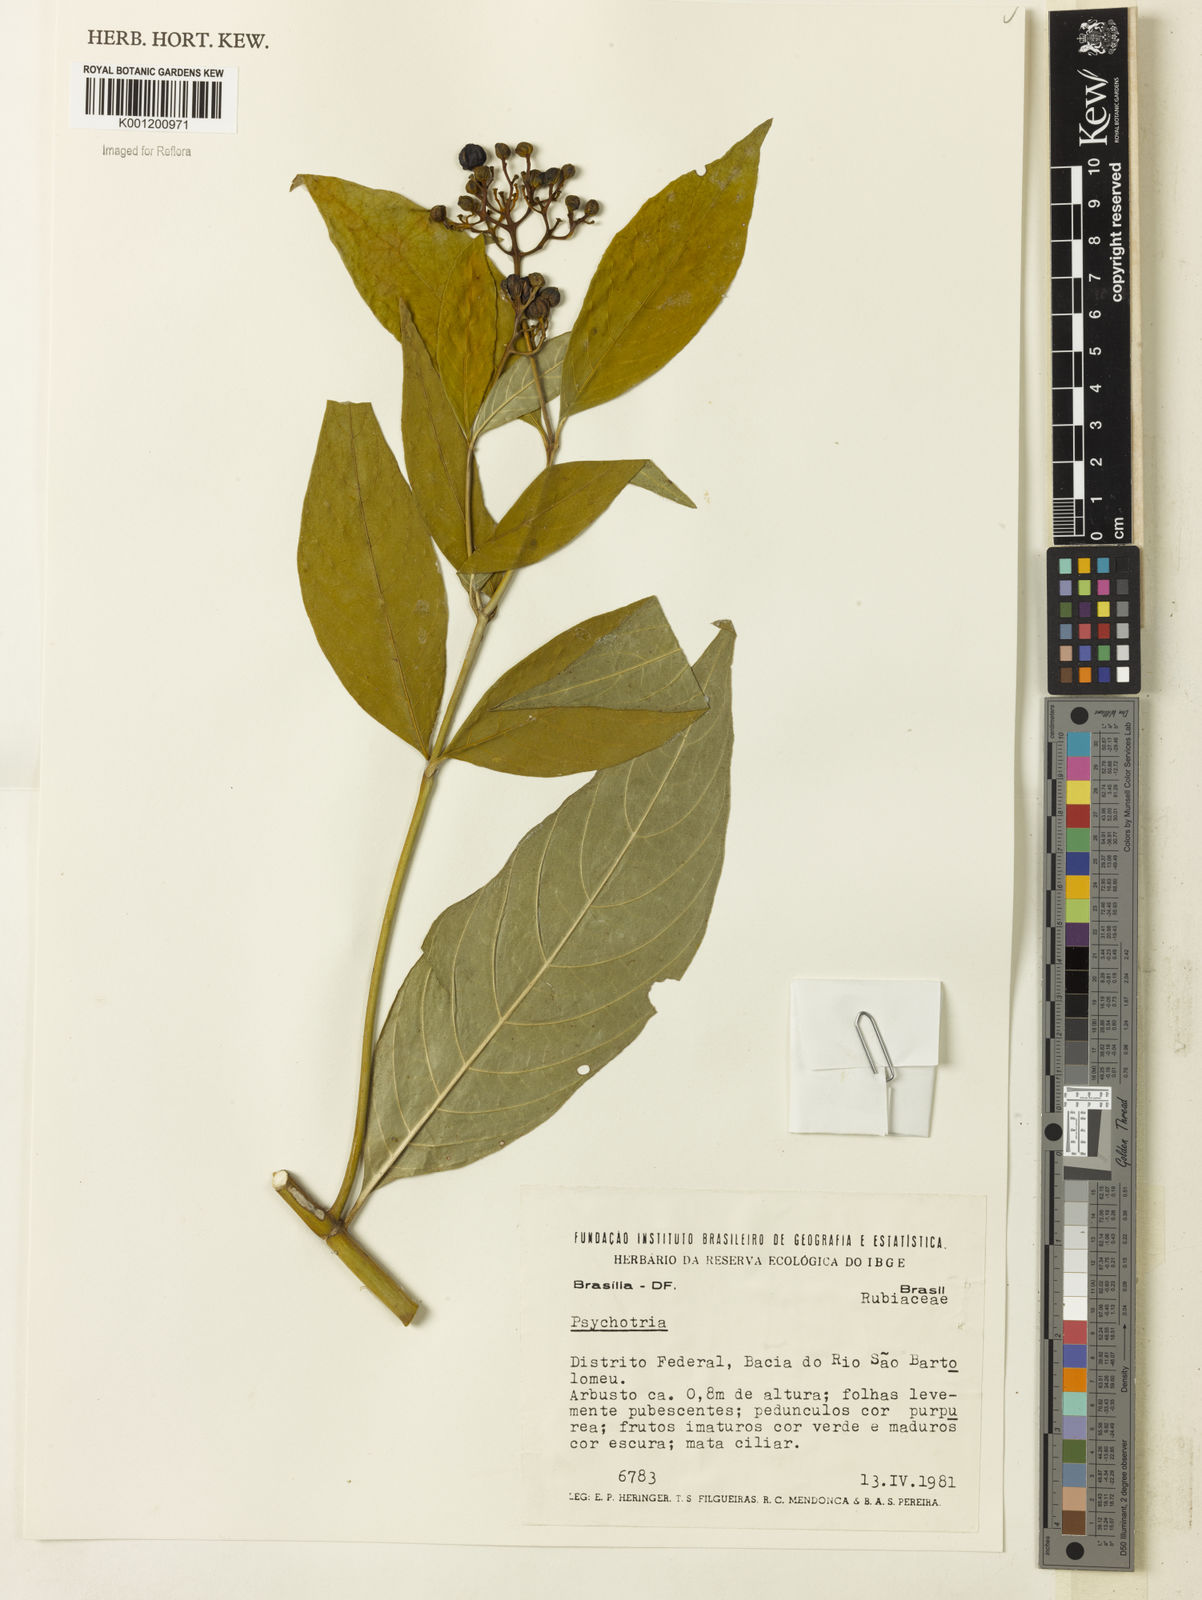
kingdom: Plantae
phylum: Tracheophyta
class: Magnoliopsida
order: Gentianales
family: Rubiaceae
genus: Palicourea
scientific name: Palicourea marcgravii
